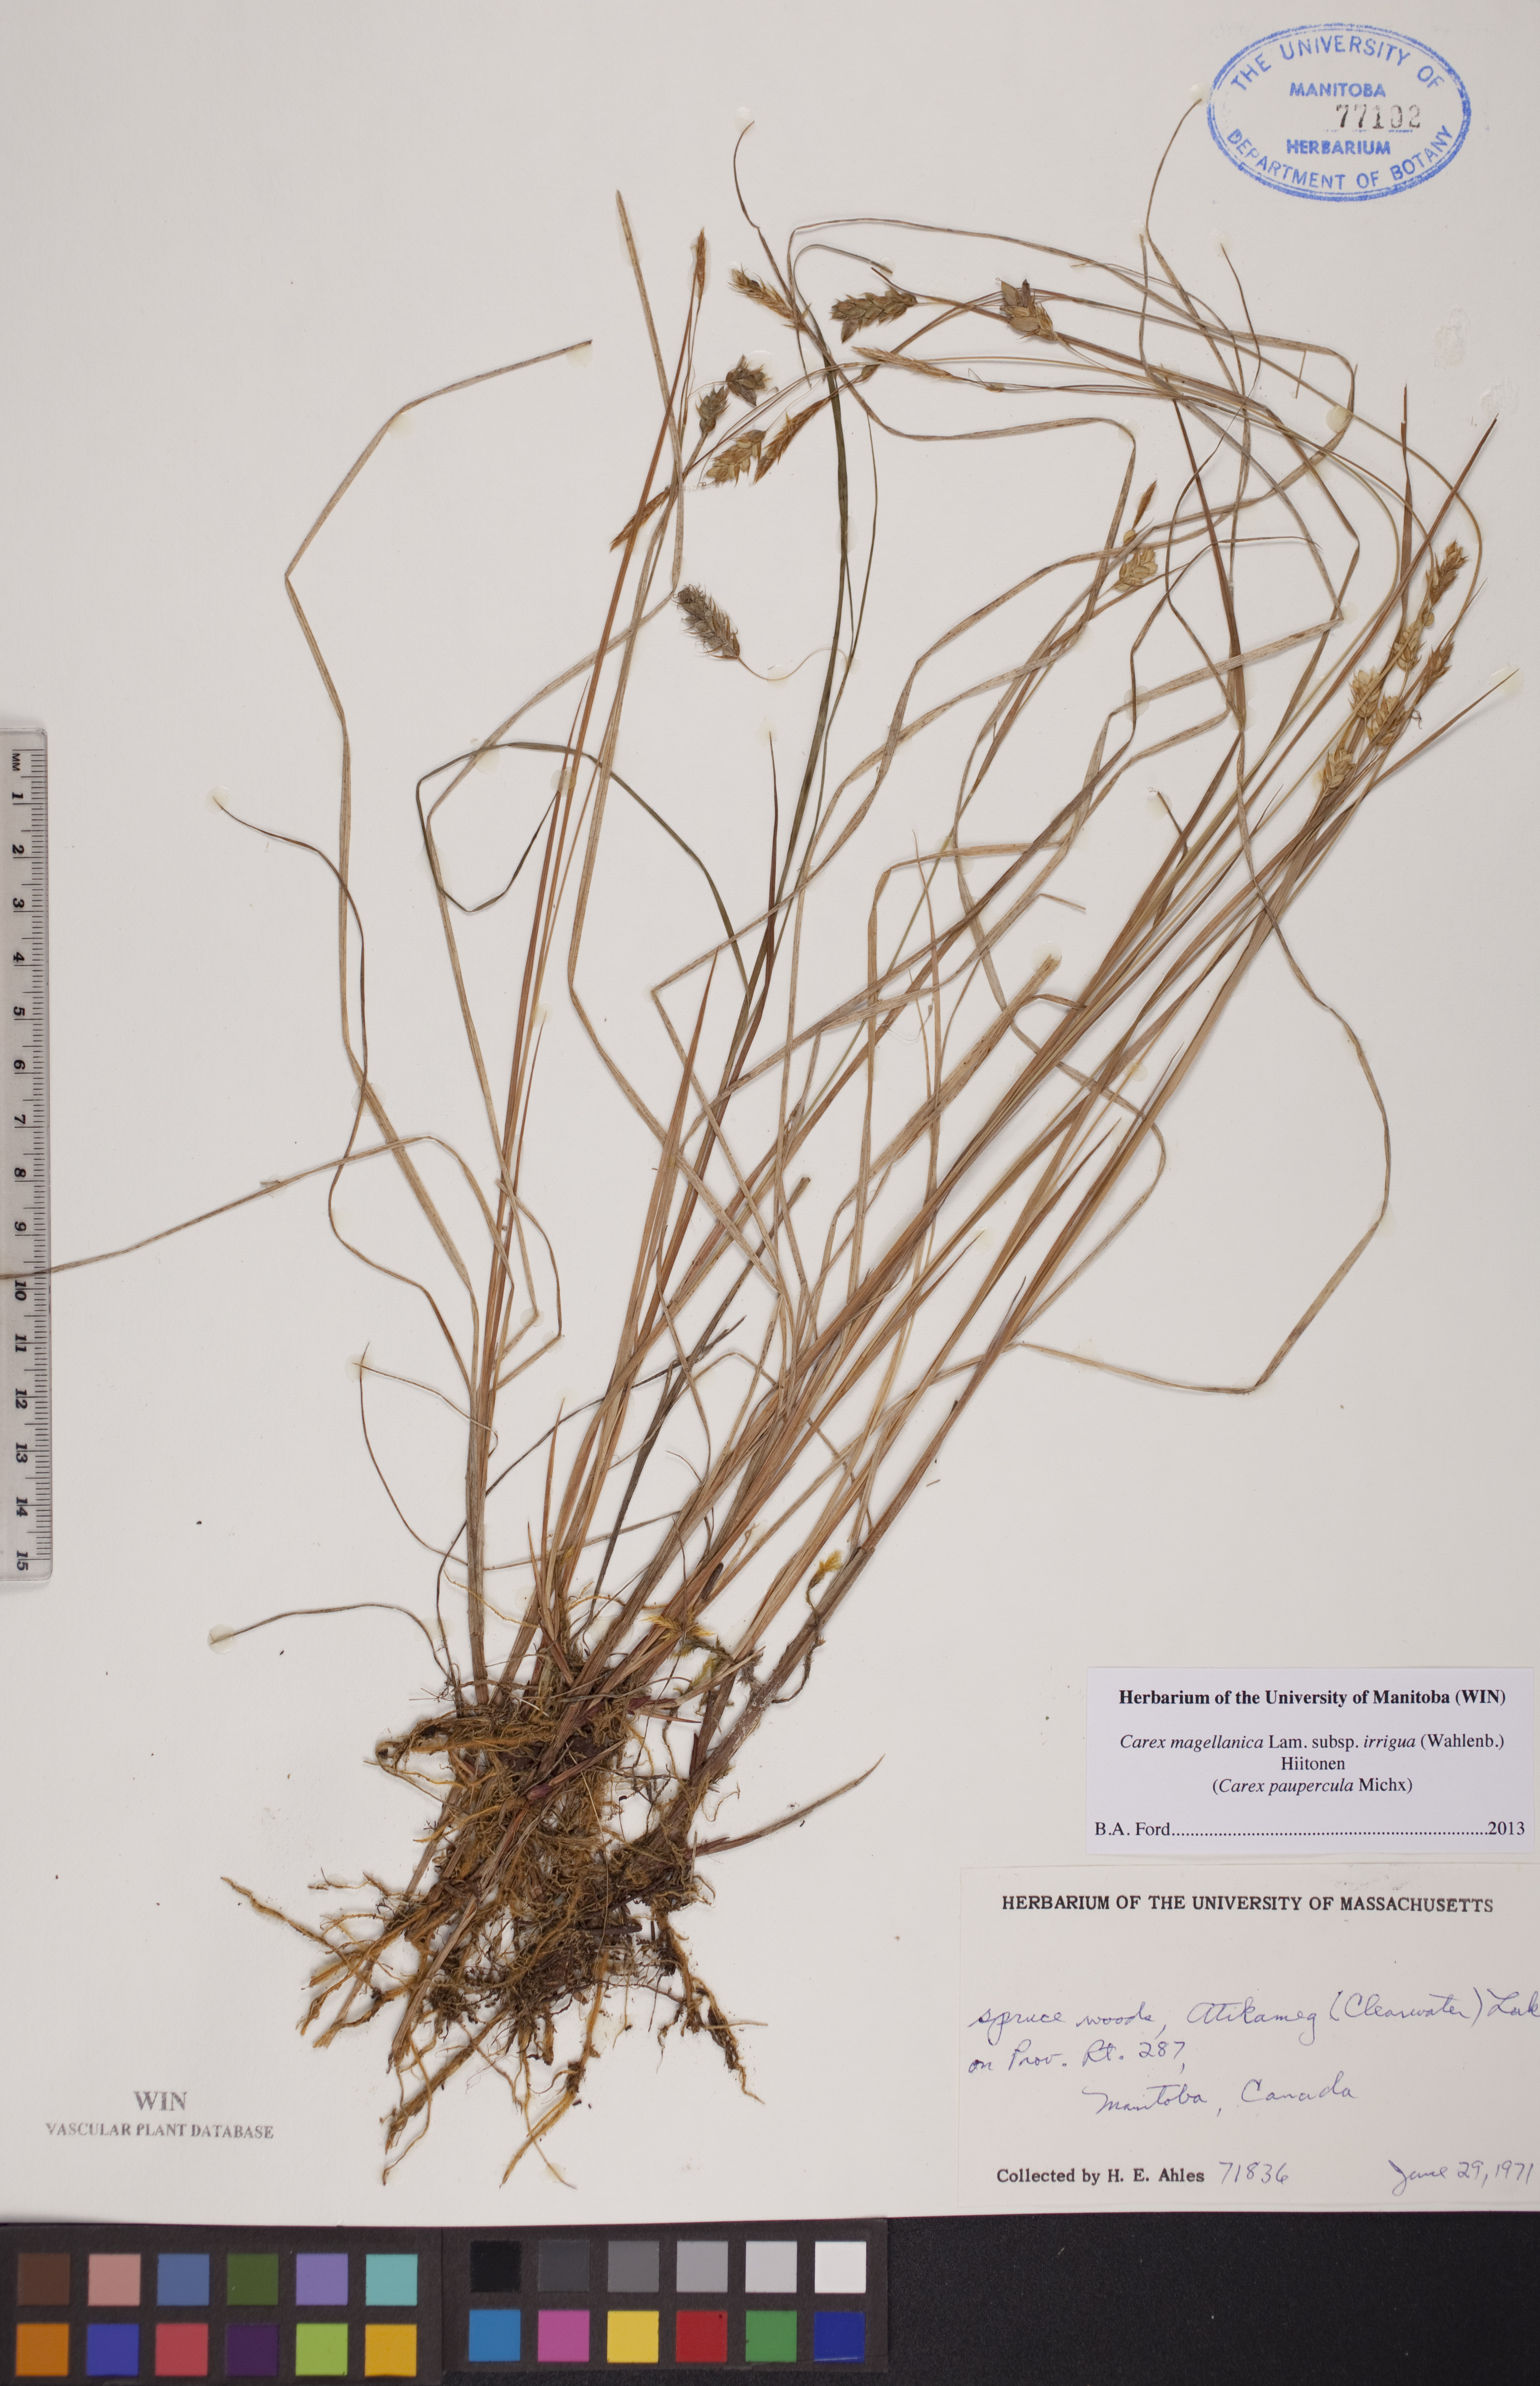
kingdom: Plantae
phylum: Tracheophyta
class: Liliopsida
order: Poales
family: Cyperaceae
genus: Carex
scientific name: Carex magellanica
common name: Bog sedge
